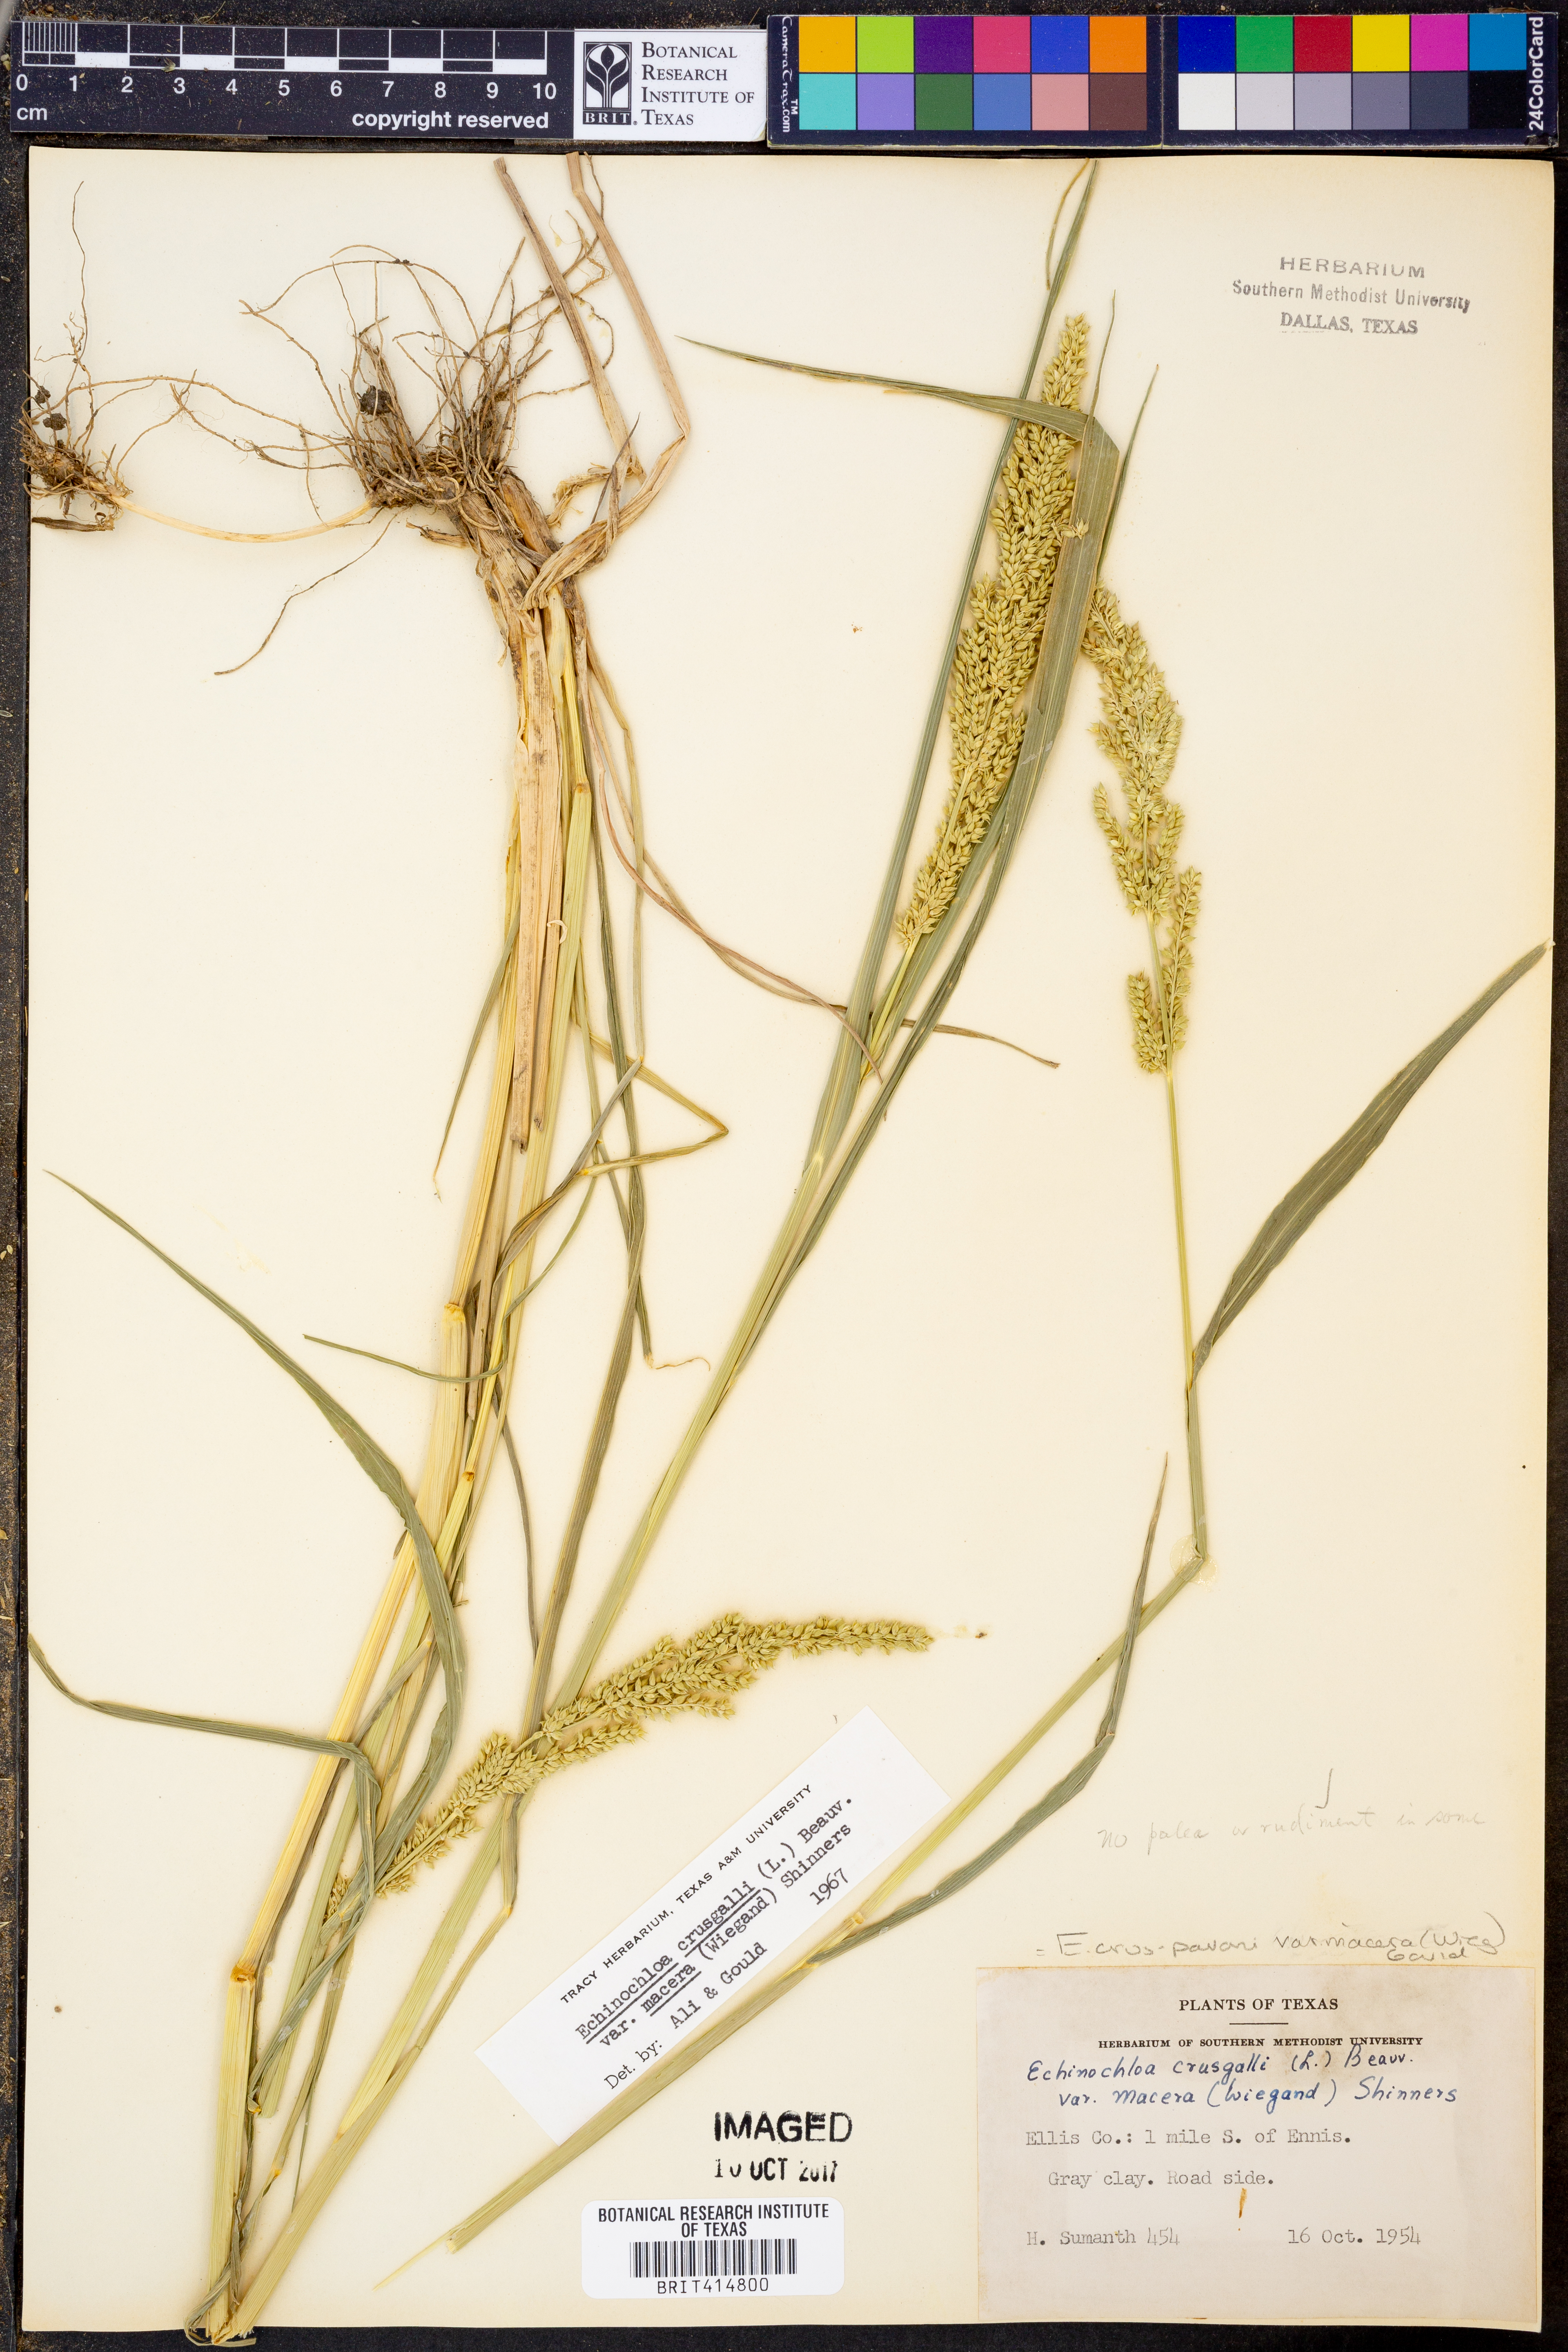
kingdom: Plantae
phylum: Tracheophyta
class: Liliopsida
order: Poales
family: Poaceae
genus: Echinochloa
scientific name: Echinochloa crus-pavonis
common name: Gulf cockspur grass
